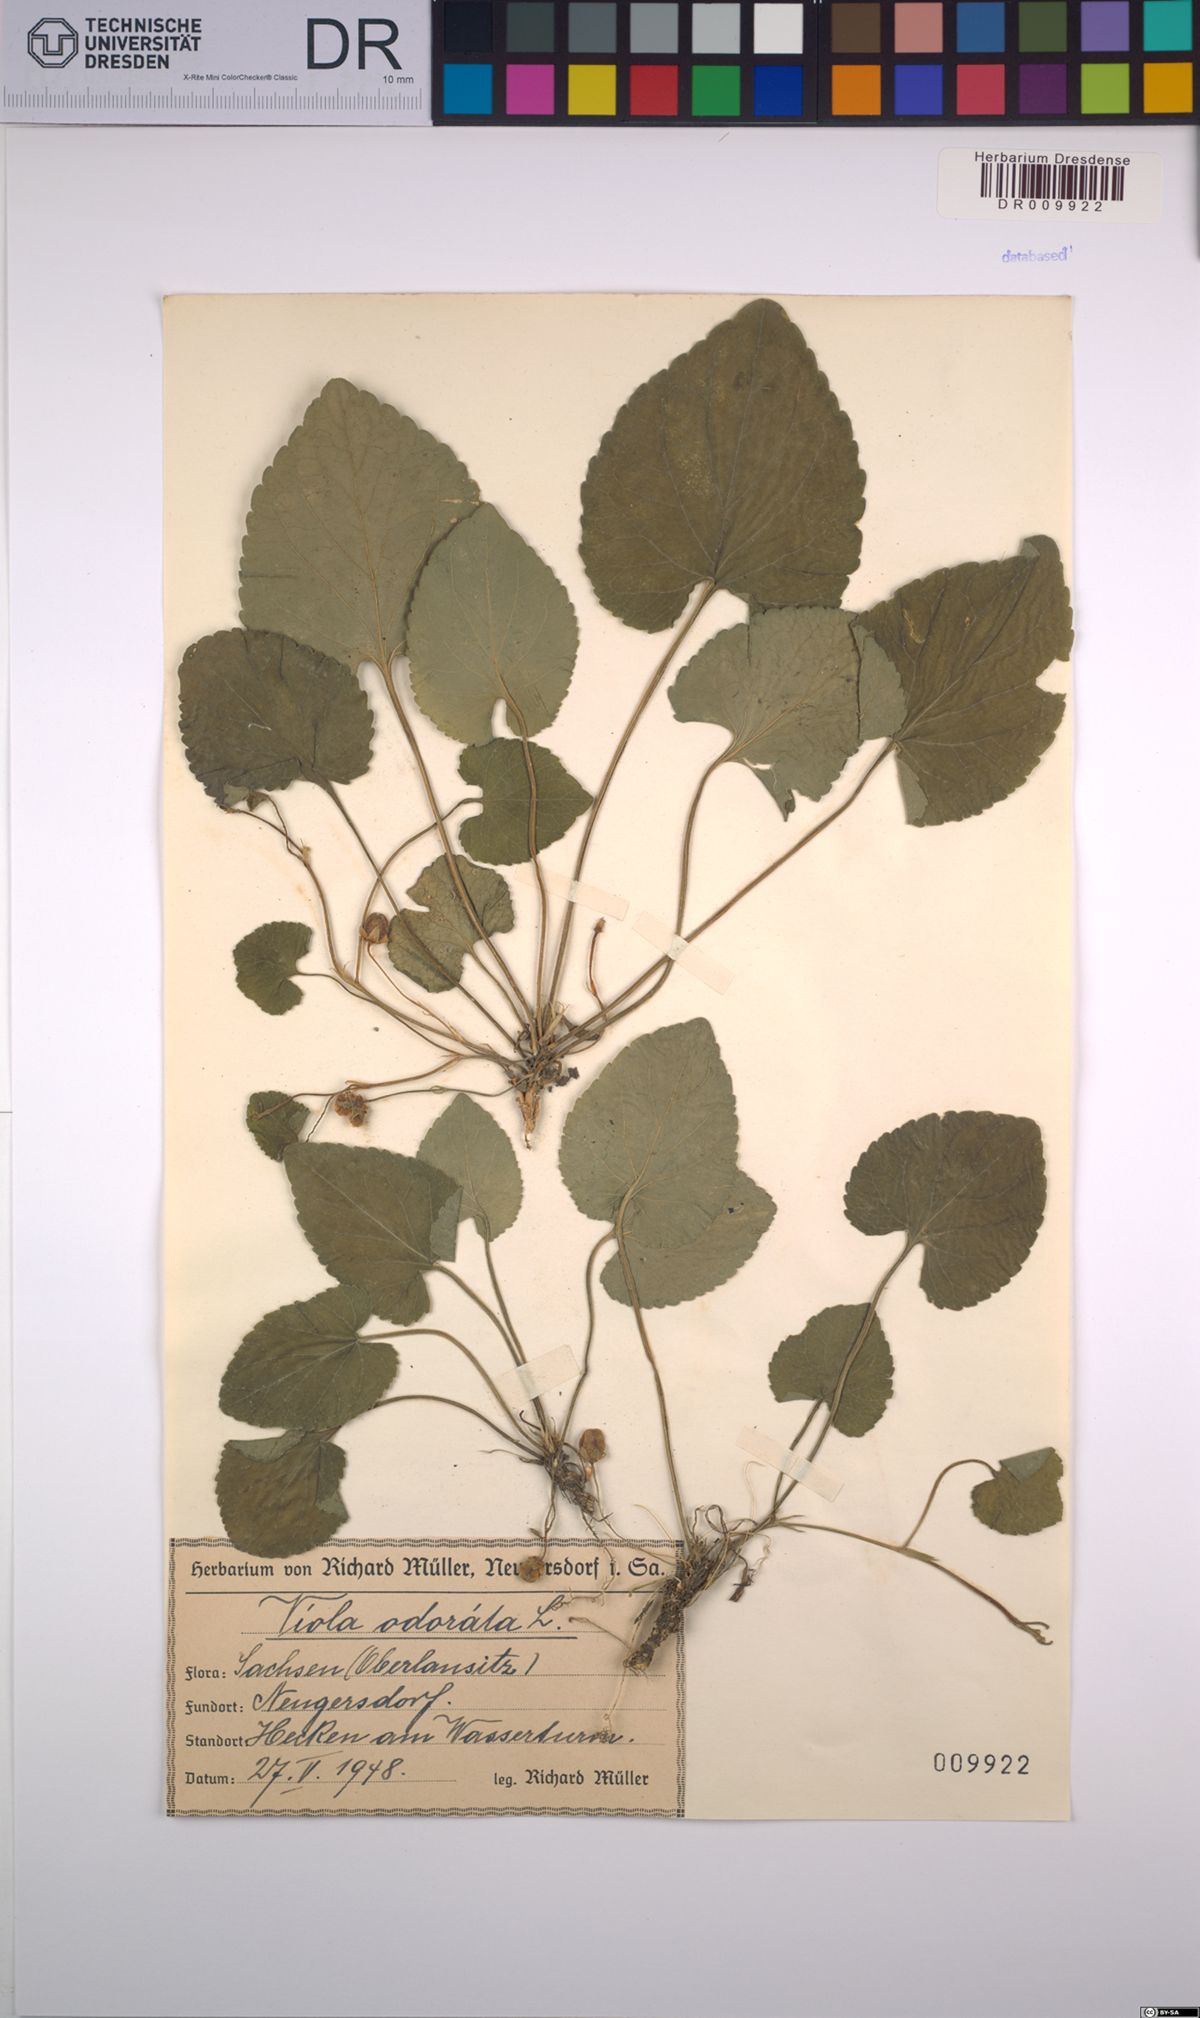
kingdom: Plantae
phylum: Tracheophyta
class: Magnoliopsida
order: Malpighiales
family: Violaceae
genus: Viola
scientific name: Viola odorata
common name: Sweet violet
